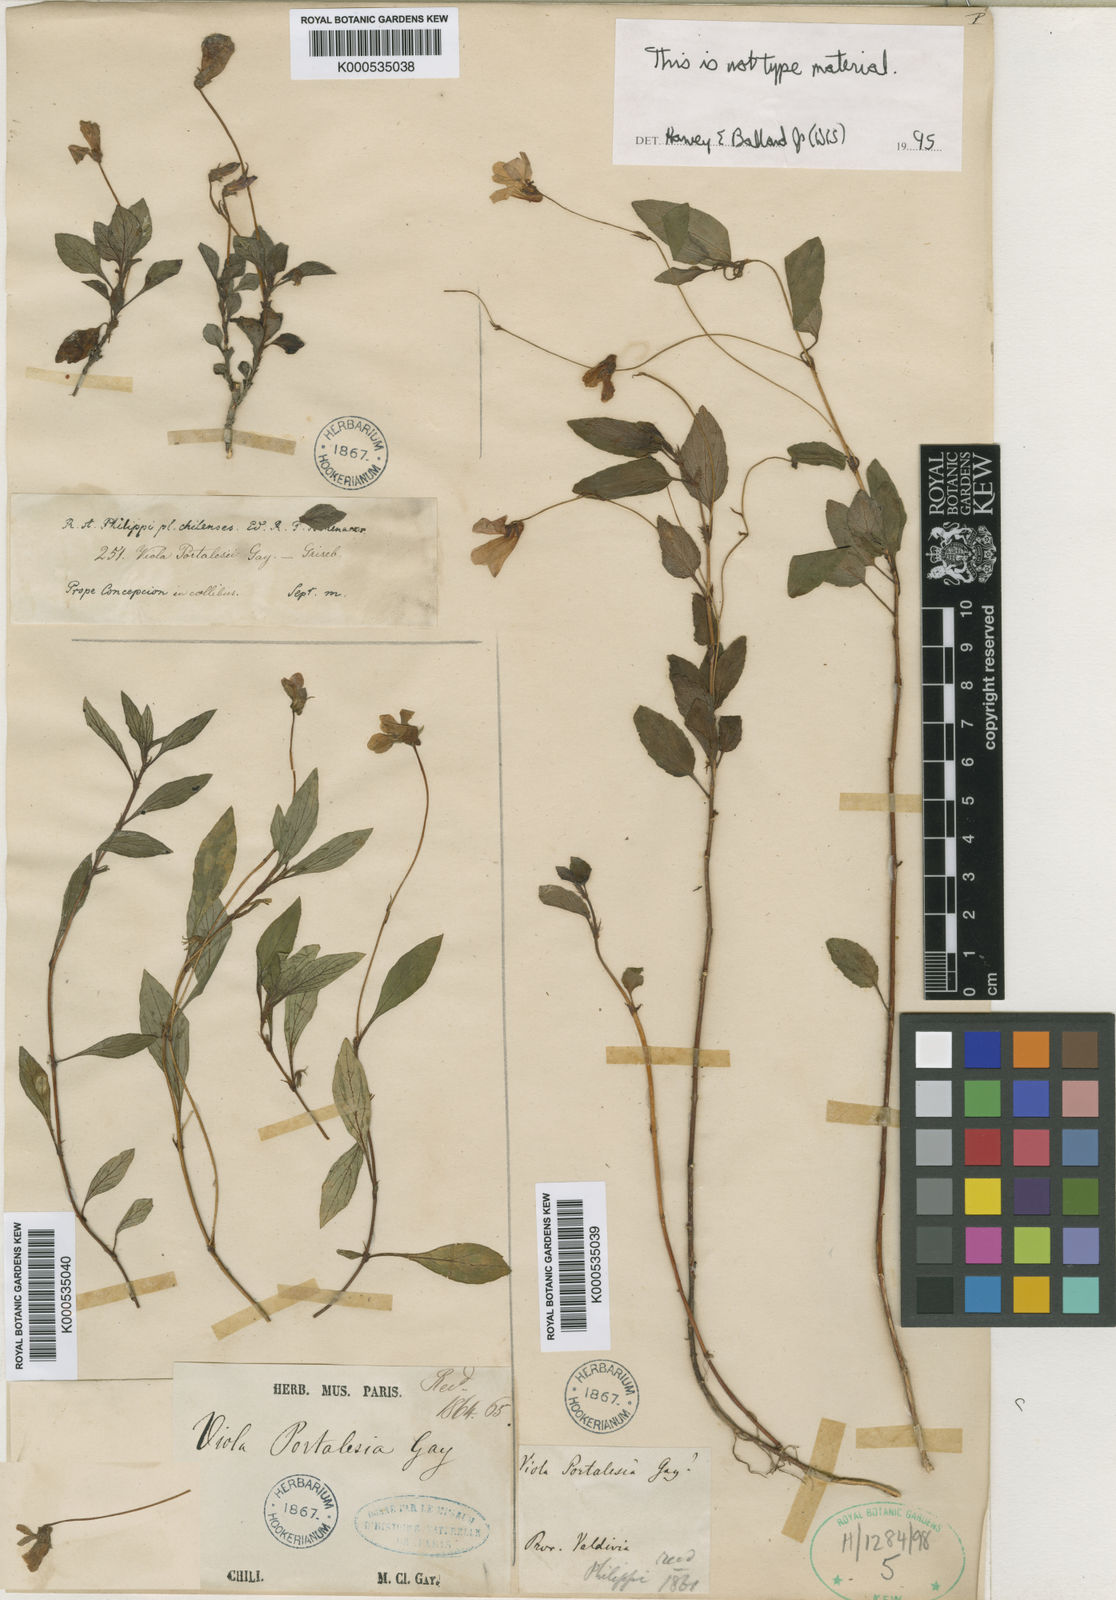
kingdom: Plantae
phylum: Tracheophyta
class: Magnoliopsida
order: Malpighiales
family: Violaceae
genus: Viola
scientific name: Viola portalesia
